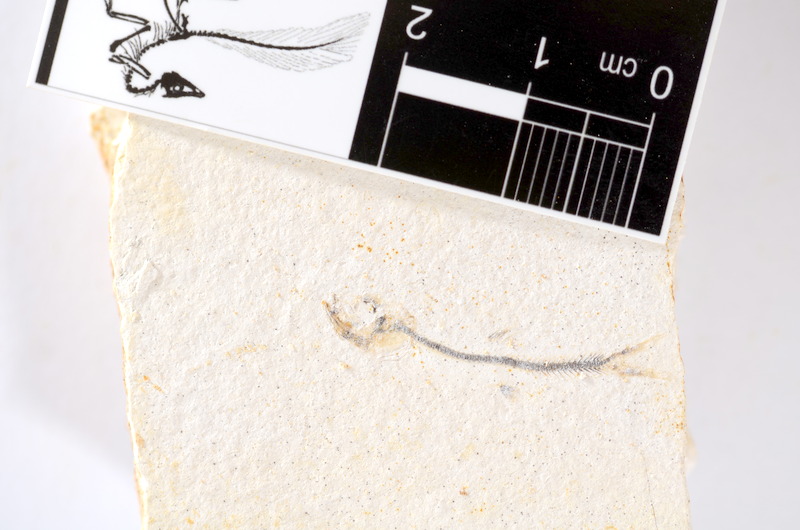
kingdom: Animalia
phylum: Chordata
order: Salmoniformes
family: Orthogonikleithridae
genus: Orthogonikleithrus
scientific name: Orthogonikleithrus hoelli
